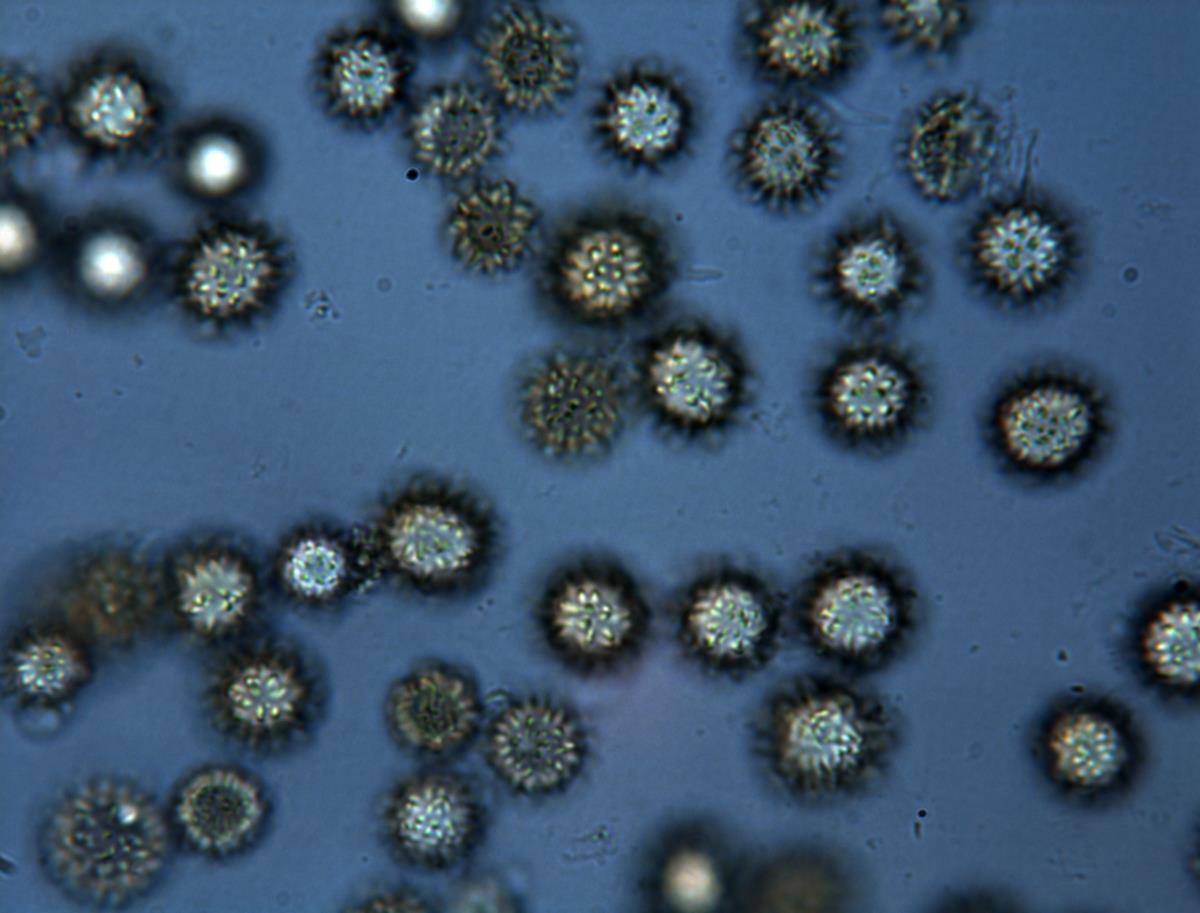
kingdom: Fungi
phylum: Basidiomycota
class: Agaricomycetes
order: Boletales
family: Sclerodermataceae
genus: Pisolithus
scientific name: Pisolithus
